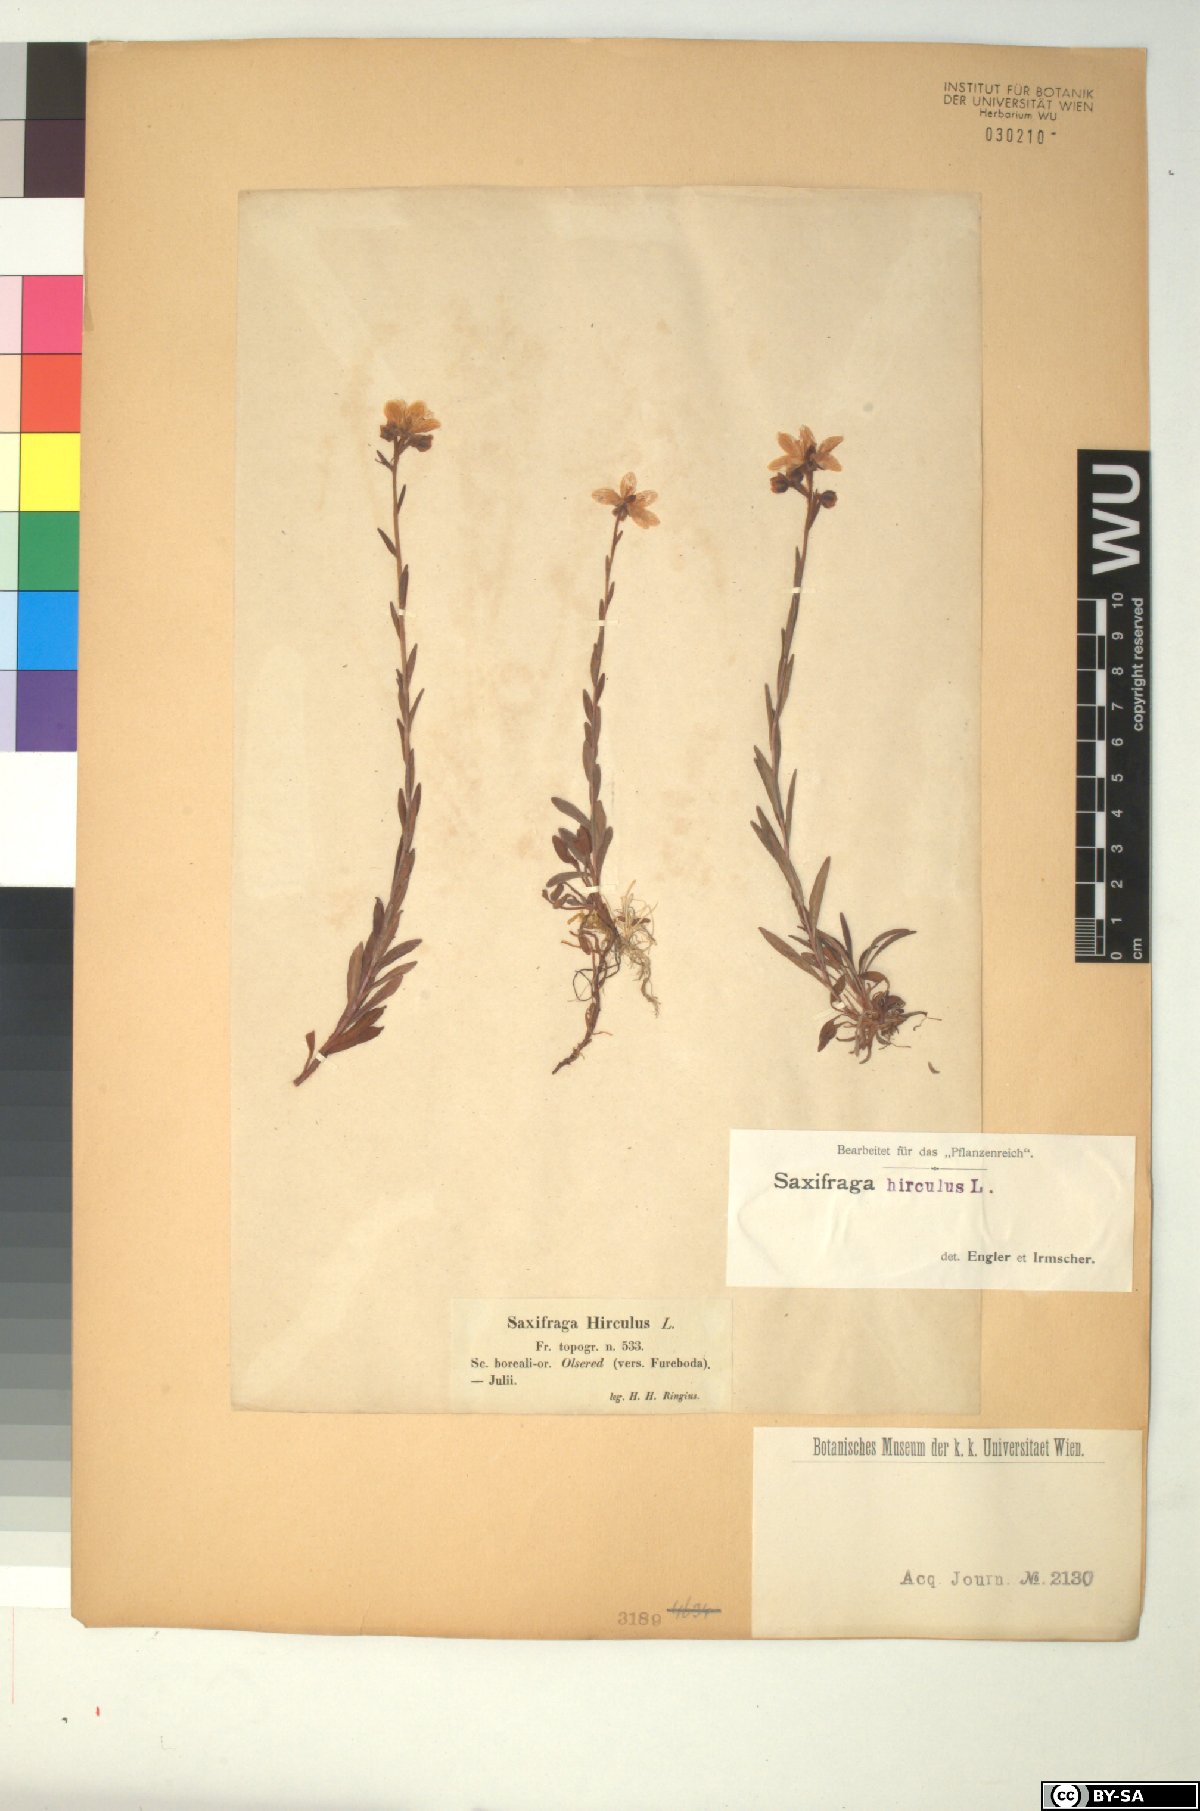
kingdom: Plantae
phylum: Tracheophyta
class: Magnoliopsida
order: Saxifragales
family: Saxifragaceae
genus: Saxifraga
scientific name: Saxifraga hirculus
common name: Yellow marsh saxifrage
